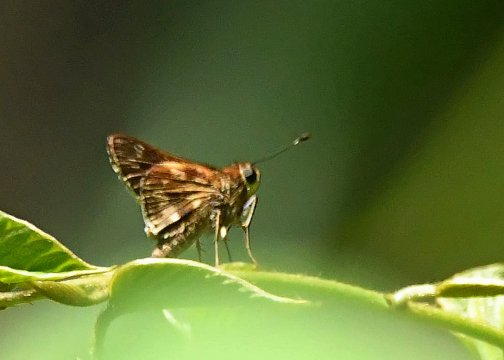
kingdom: Animalia
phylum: Arthropoda
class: Insecta
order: Lepidoptera
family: Hesperiidae
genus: Pompeius
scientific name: Pompeius pompeius
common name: Pompeius Skipper
